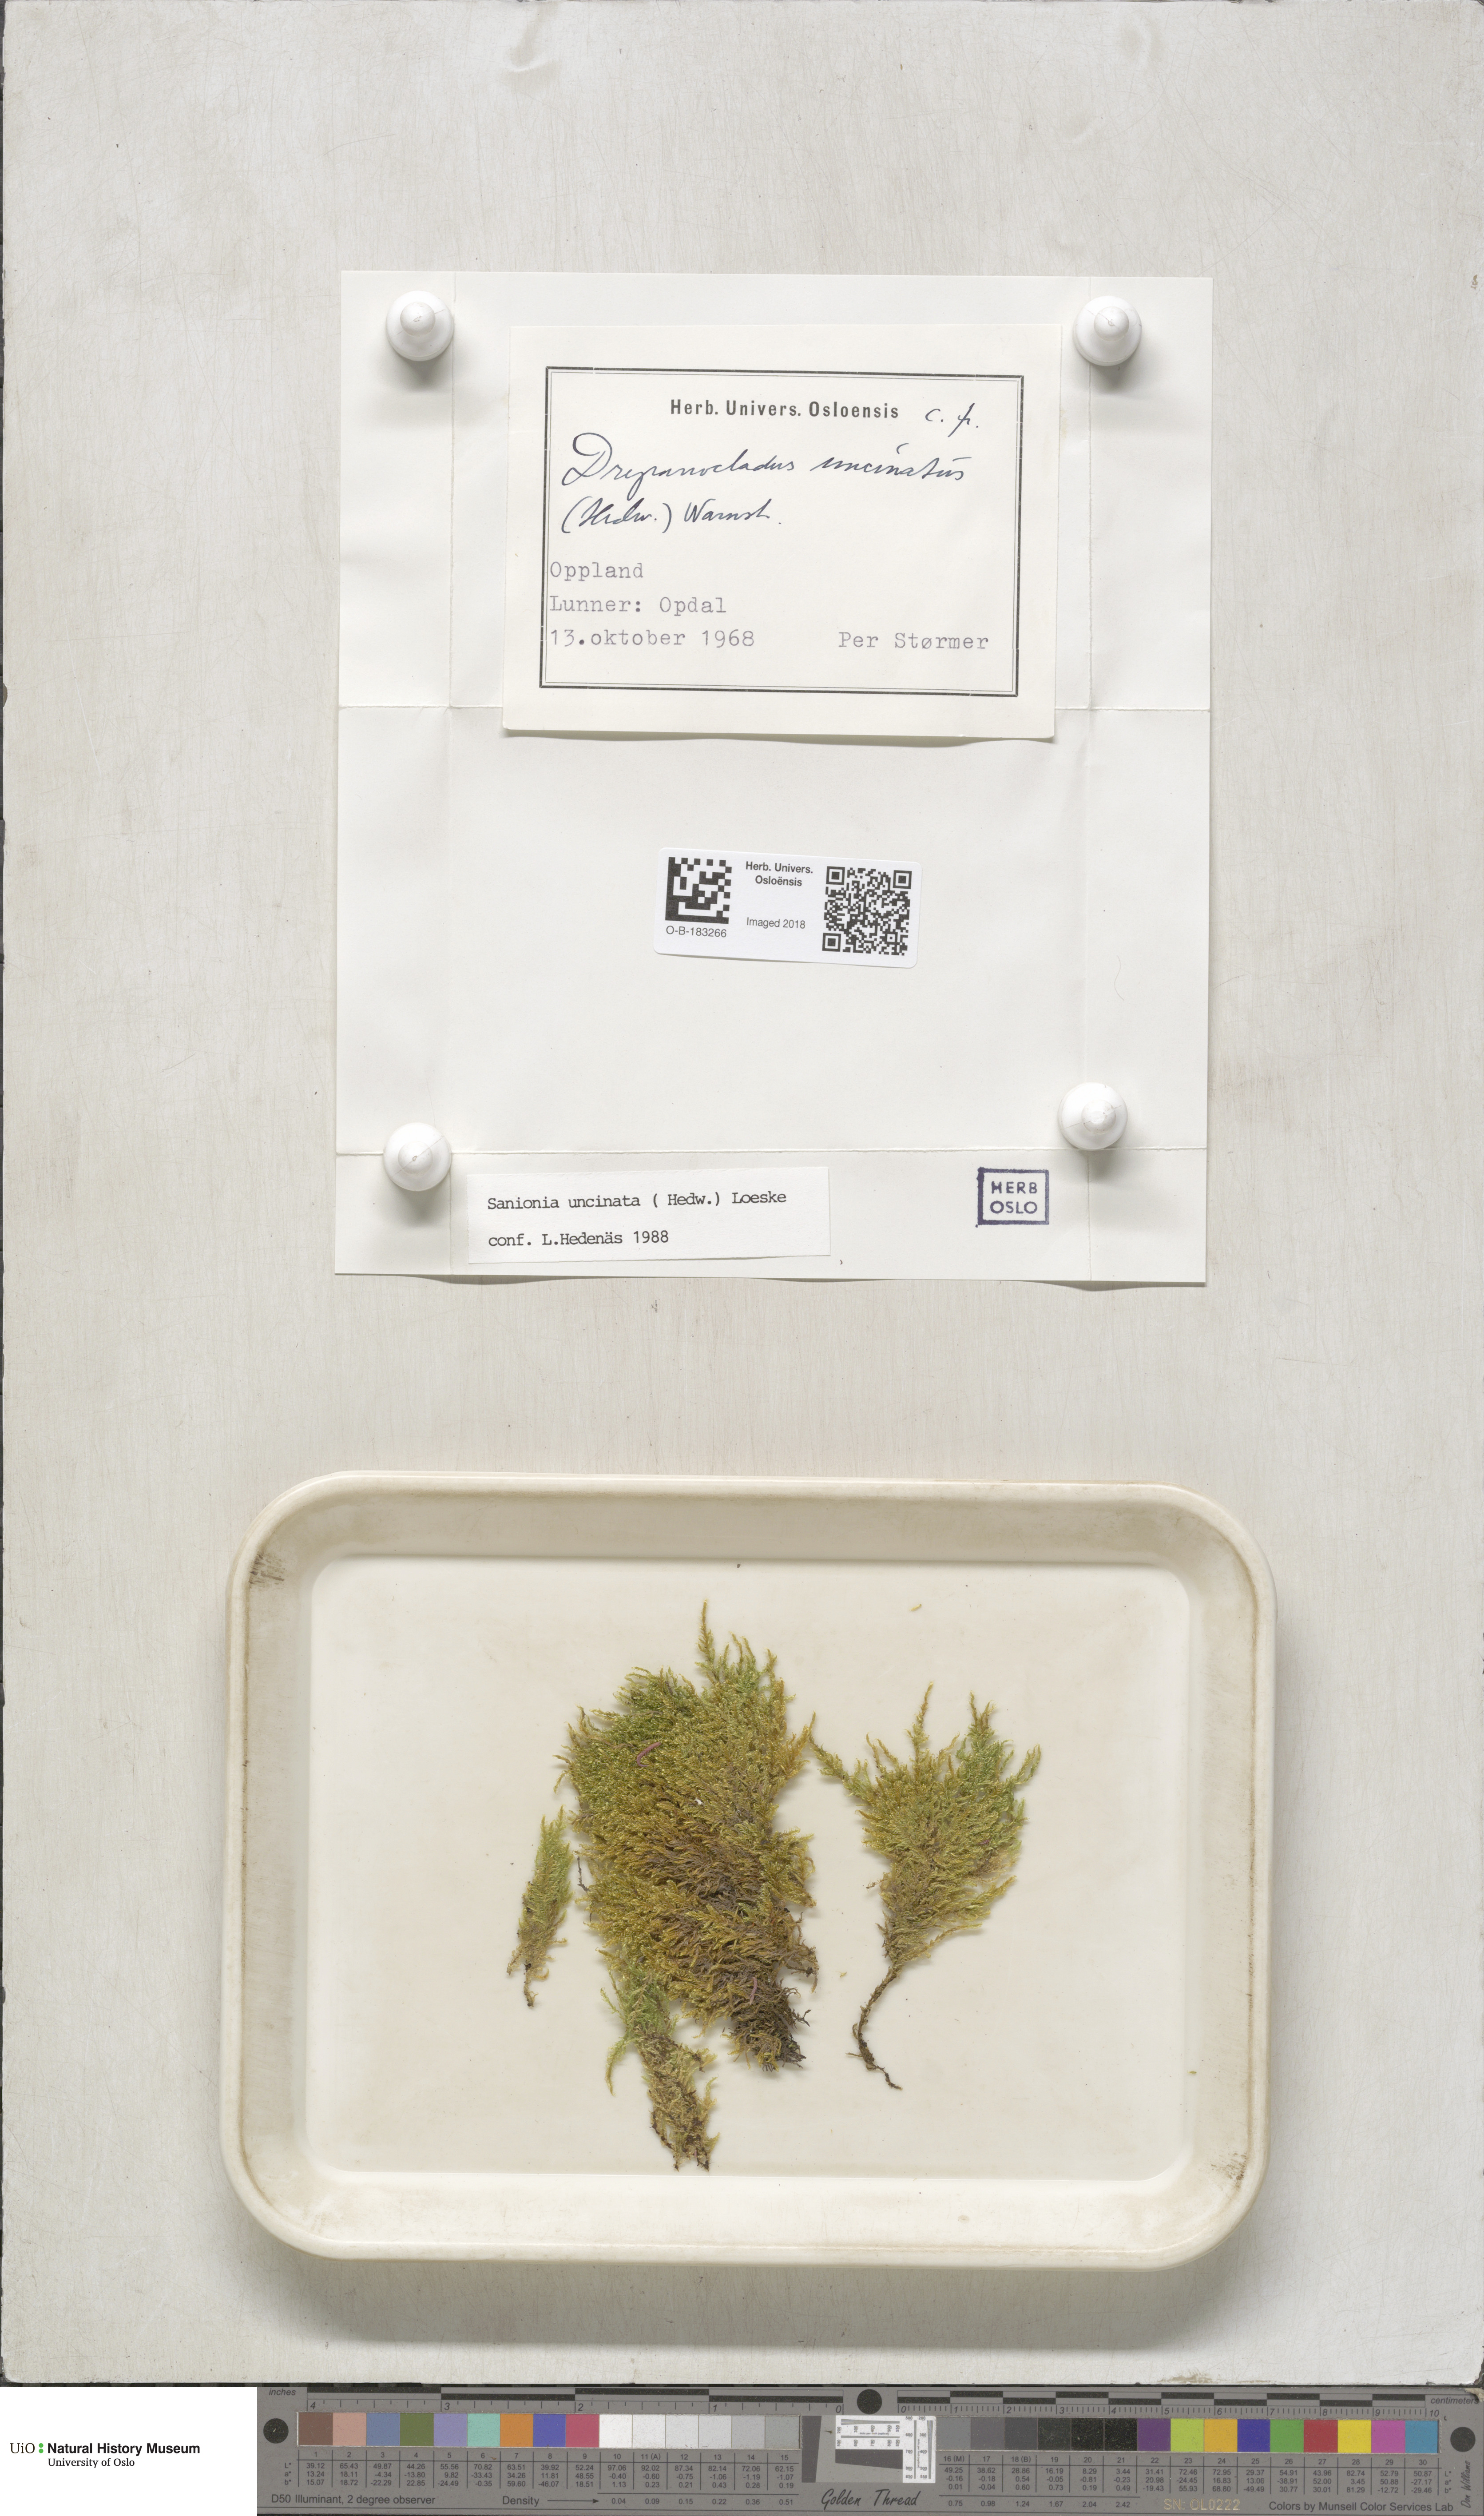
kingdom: Plantae
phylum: Bryophyta
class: Bryopsida
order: Hypnales
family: Scorpidiaceae
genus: Sanionia
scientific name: Sanionia uncinata
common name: Sickle moss
